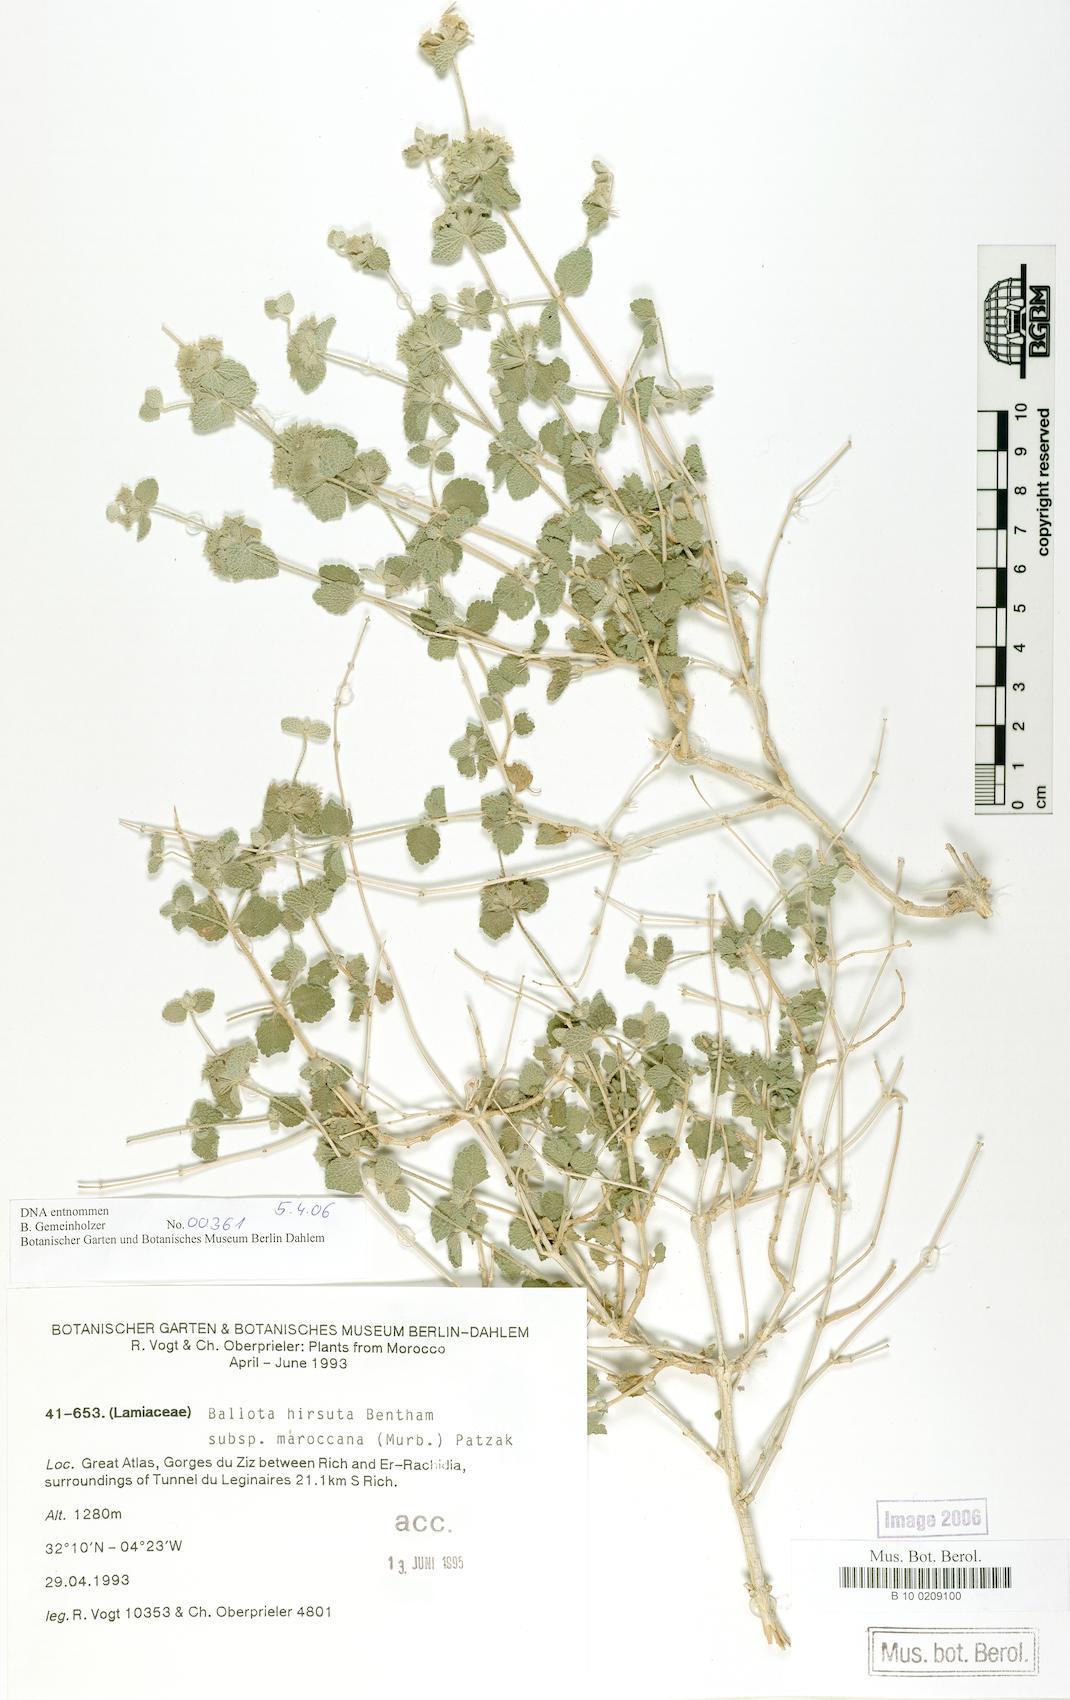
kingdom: Plantae
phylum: Tracheophyta
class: Magnoliopsida
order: Lamiales
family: Lamiaceae
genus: Pseudodictamnus
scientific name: Pseudodictamnus hirsutus
